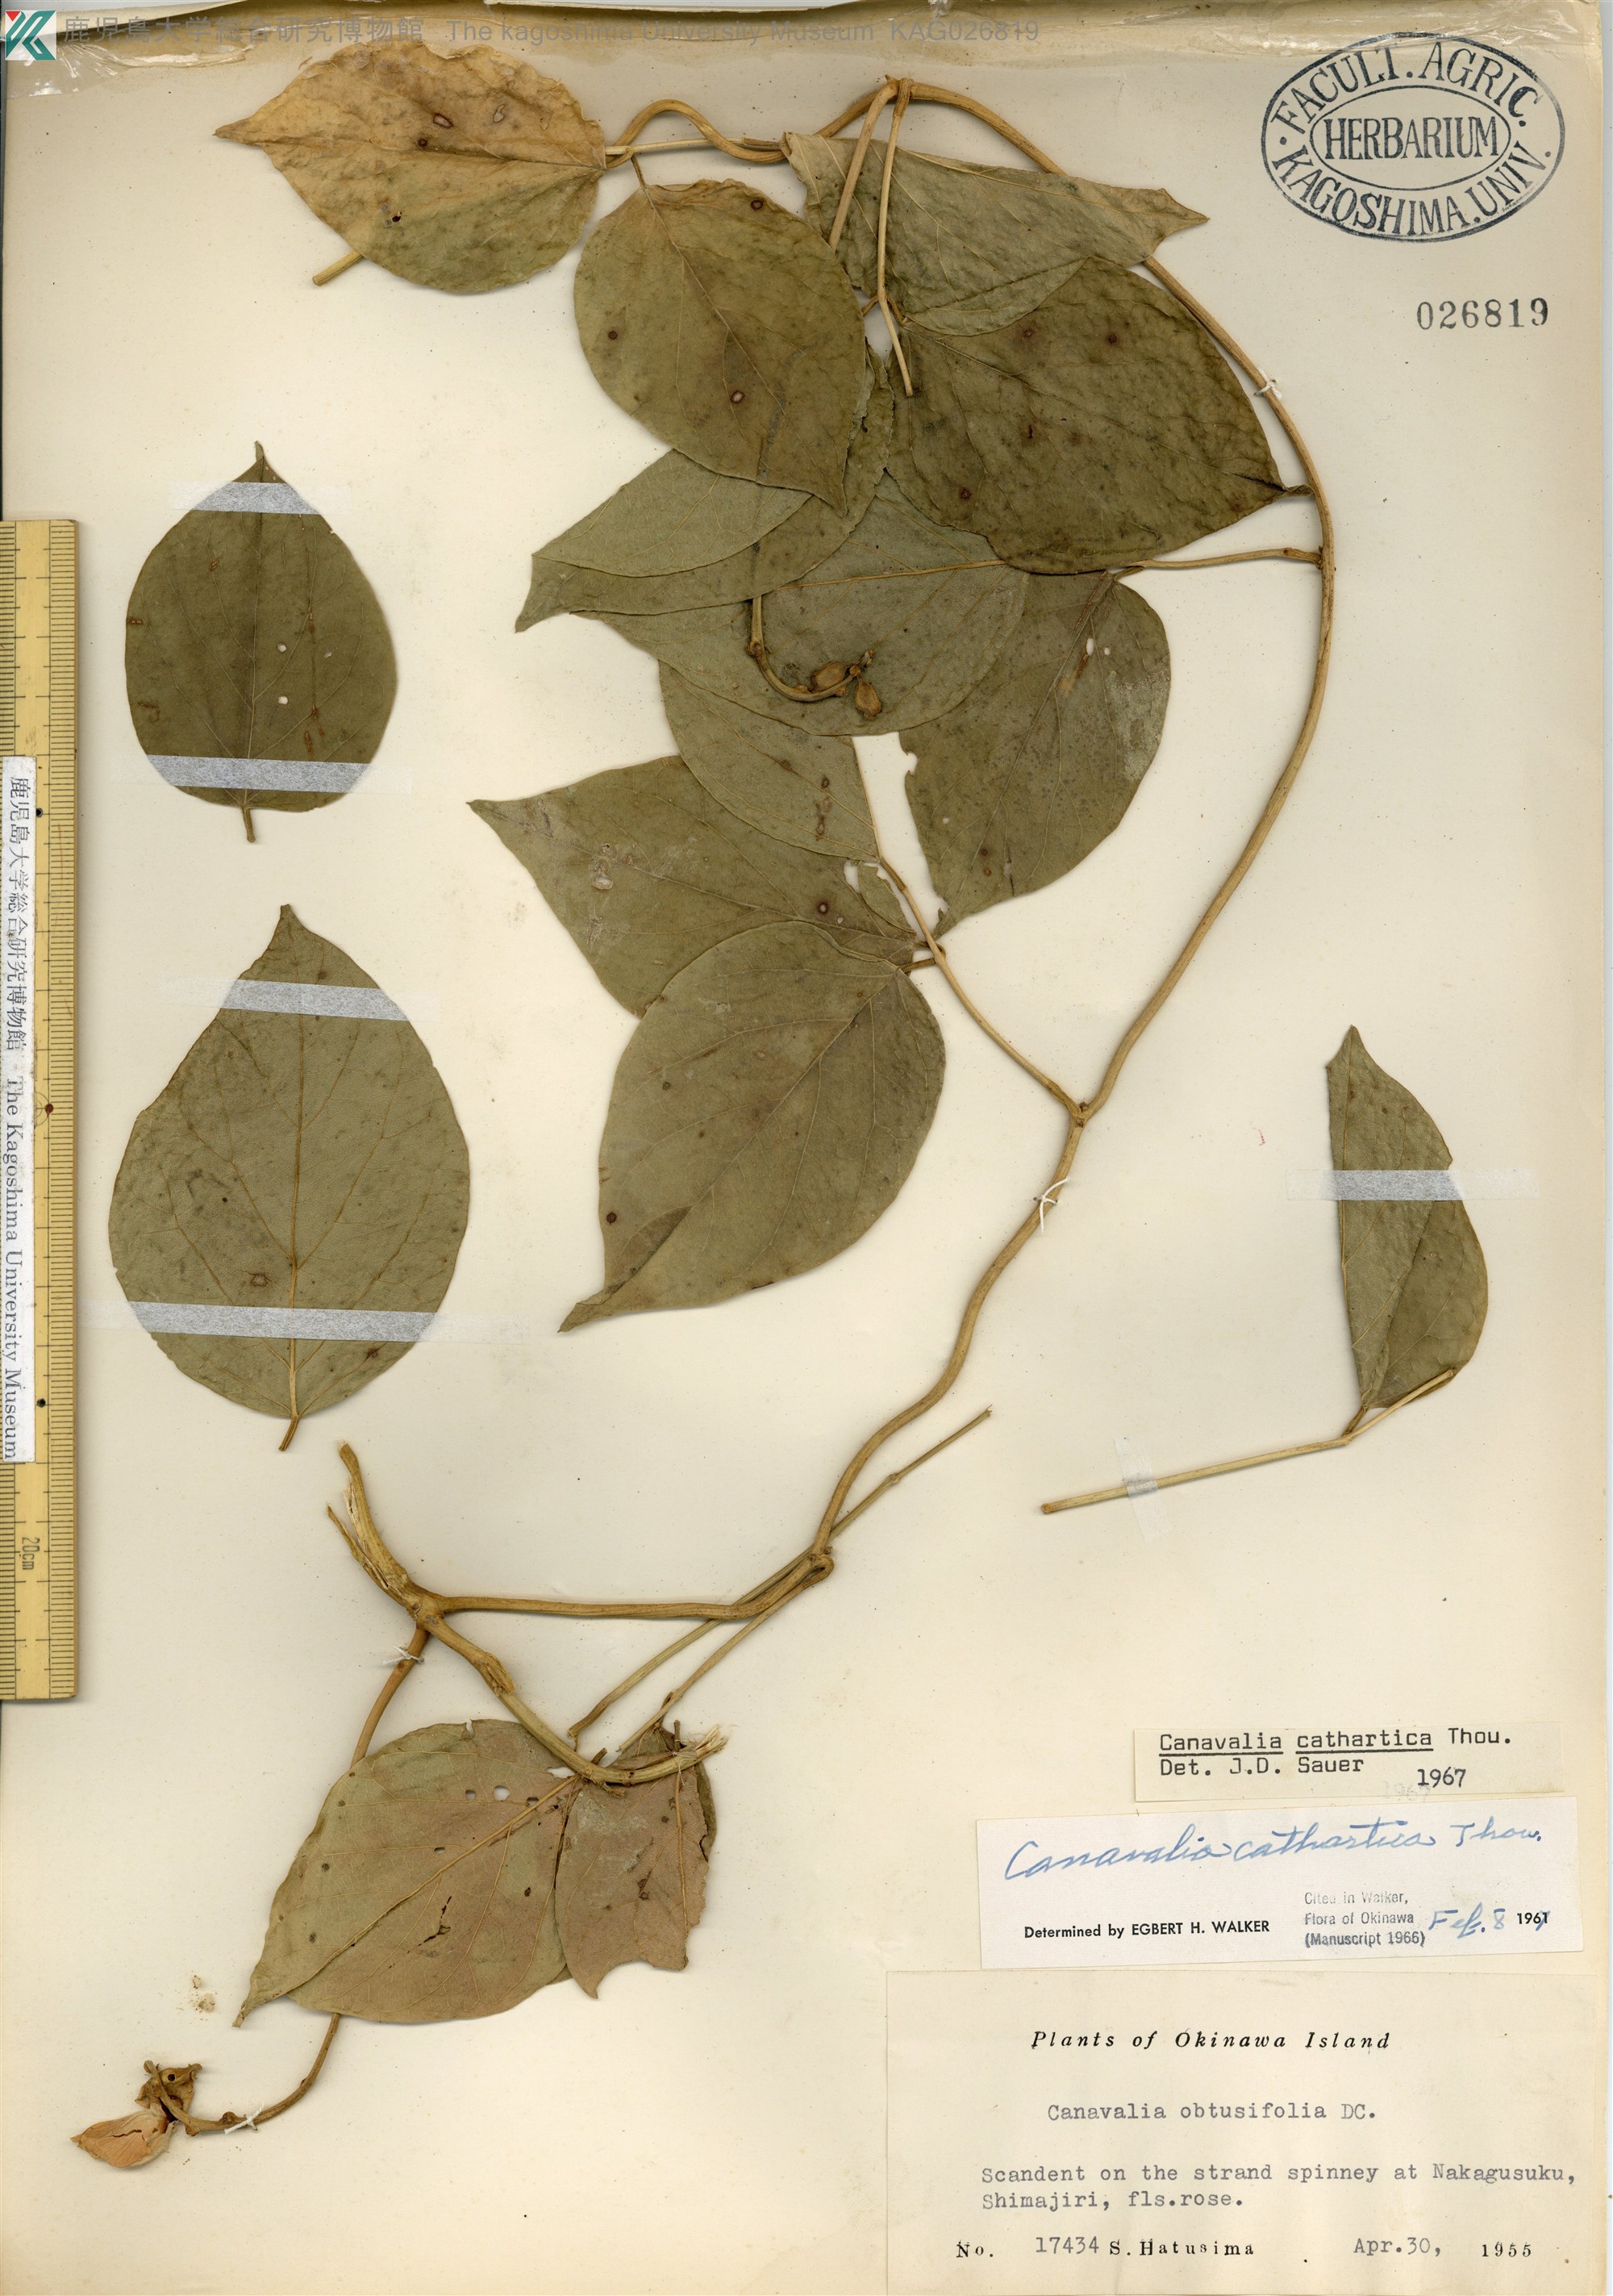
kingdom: Plantae
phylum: Tracheophyta
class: Magnoliopsida
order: Fabales
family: Fabaceae
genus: Canavalia
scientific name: Canavalia cathartica
